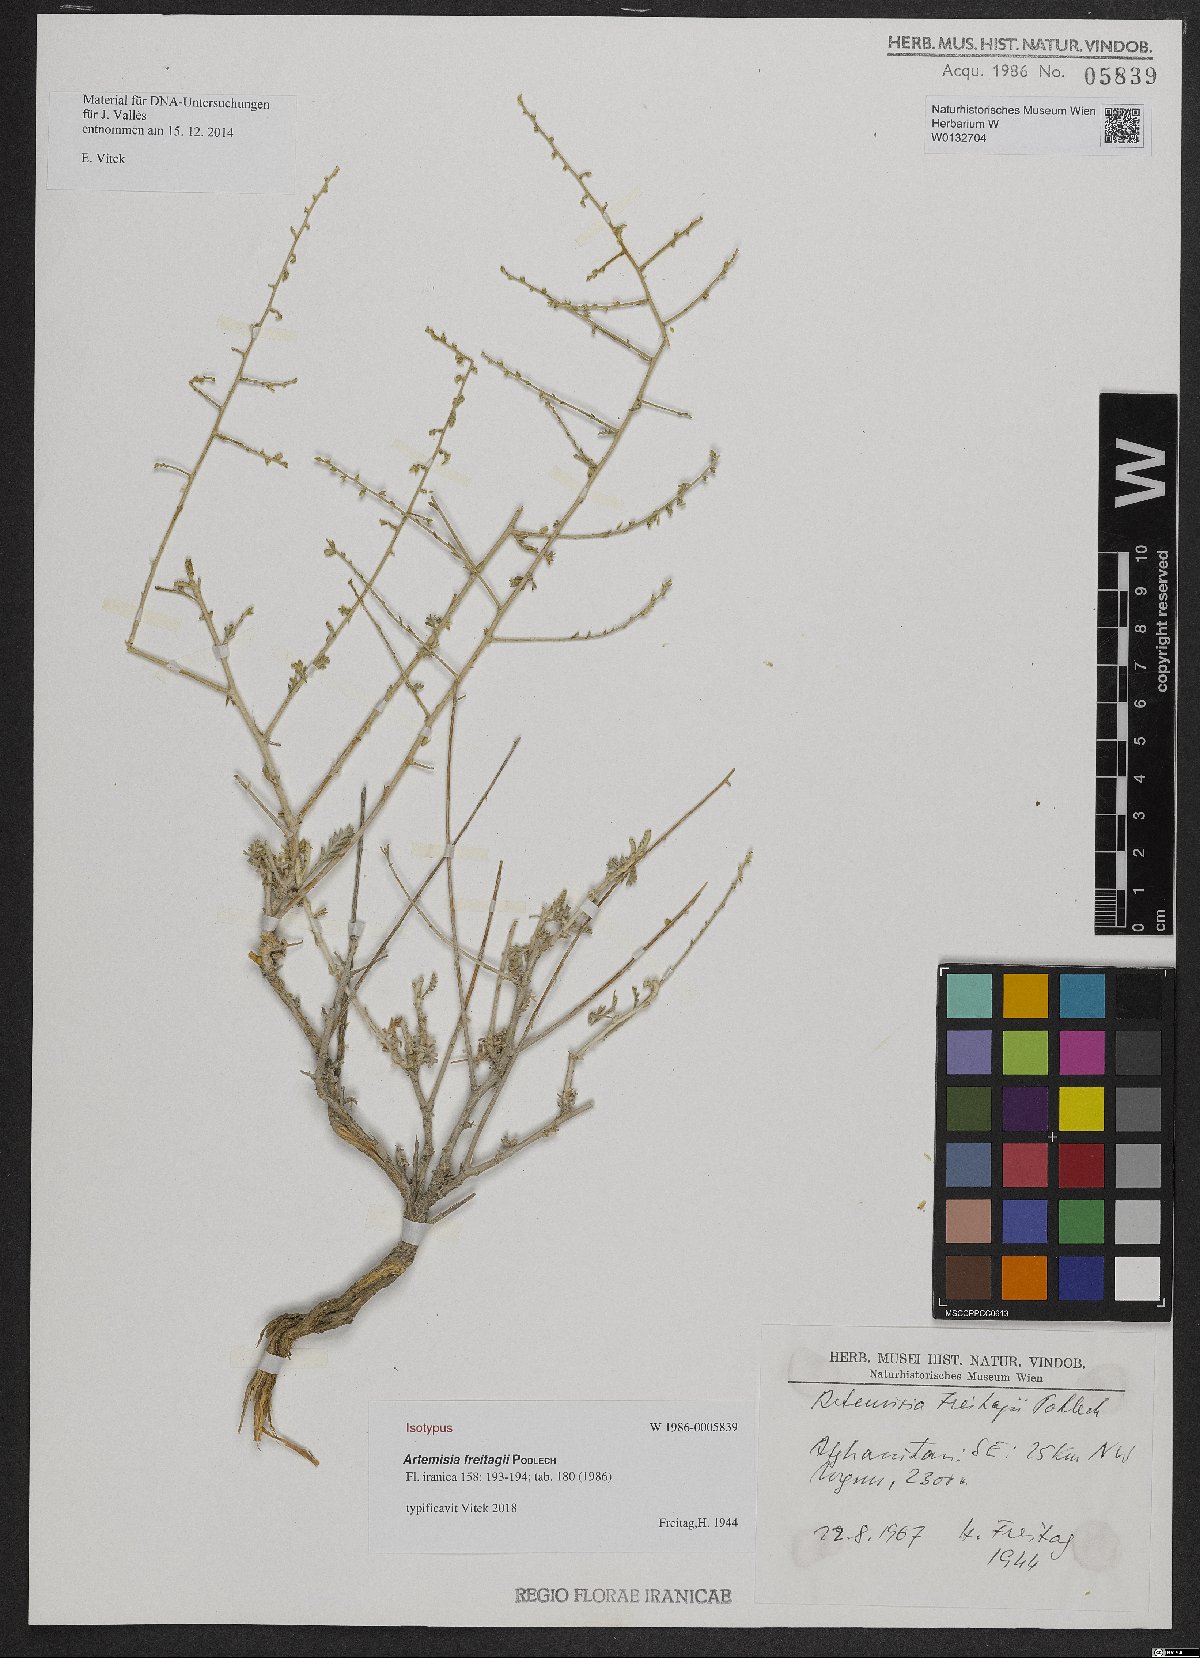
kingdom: Plantae
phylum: Tracheophyta
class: Magnoliopsida
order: Asterales
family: Asteraceae
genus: Artemisia
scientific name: Artemisia freitagii
